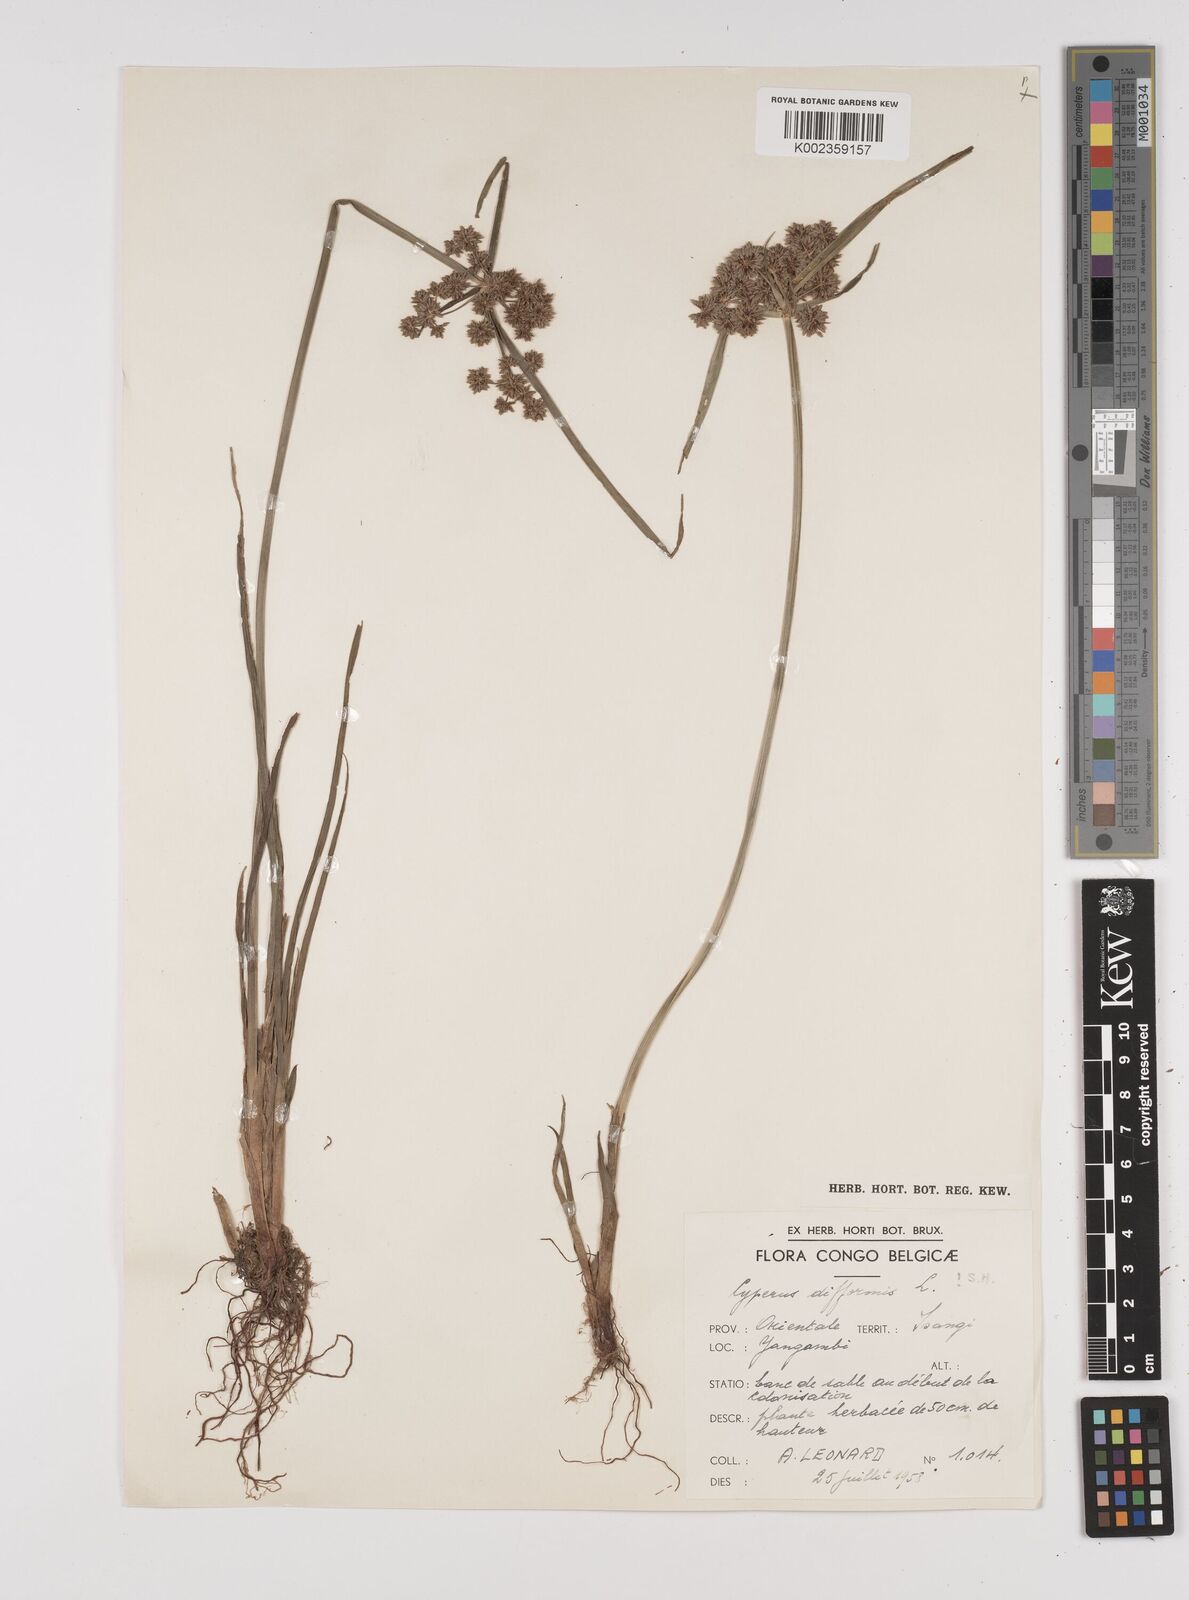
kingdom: Plantae
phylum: Tracheophyta
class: Liliopsida
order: Poales
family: Cyperaceae
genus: Cyperus
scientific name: Cyperus difformis
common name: Variable flatsedge
